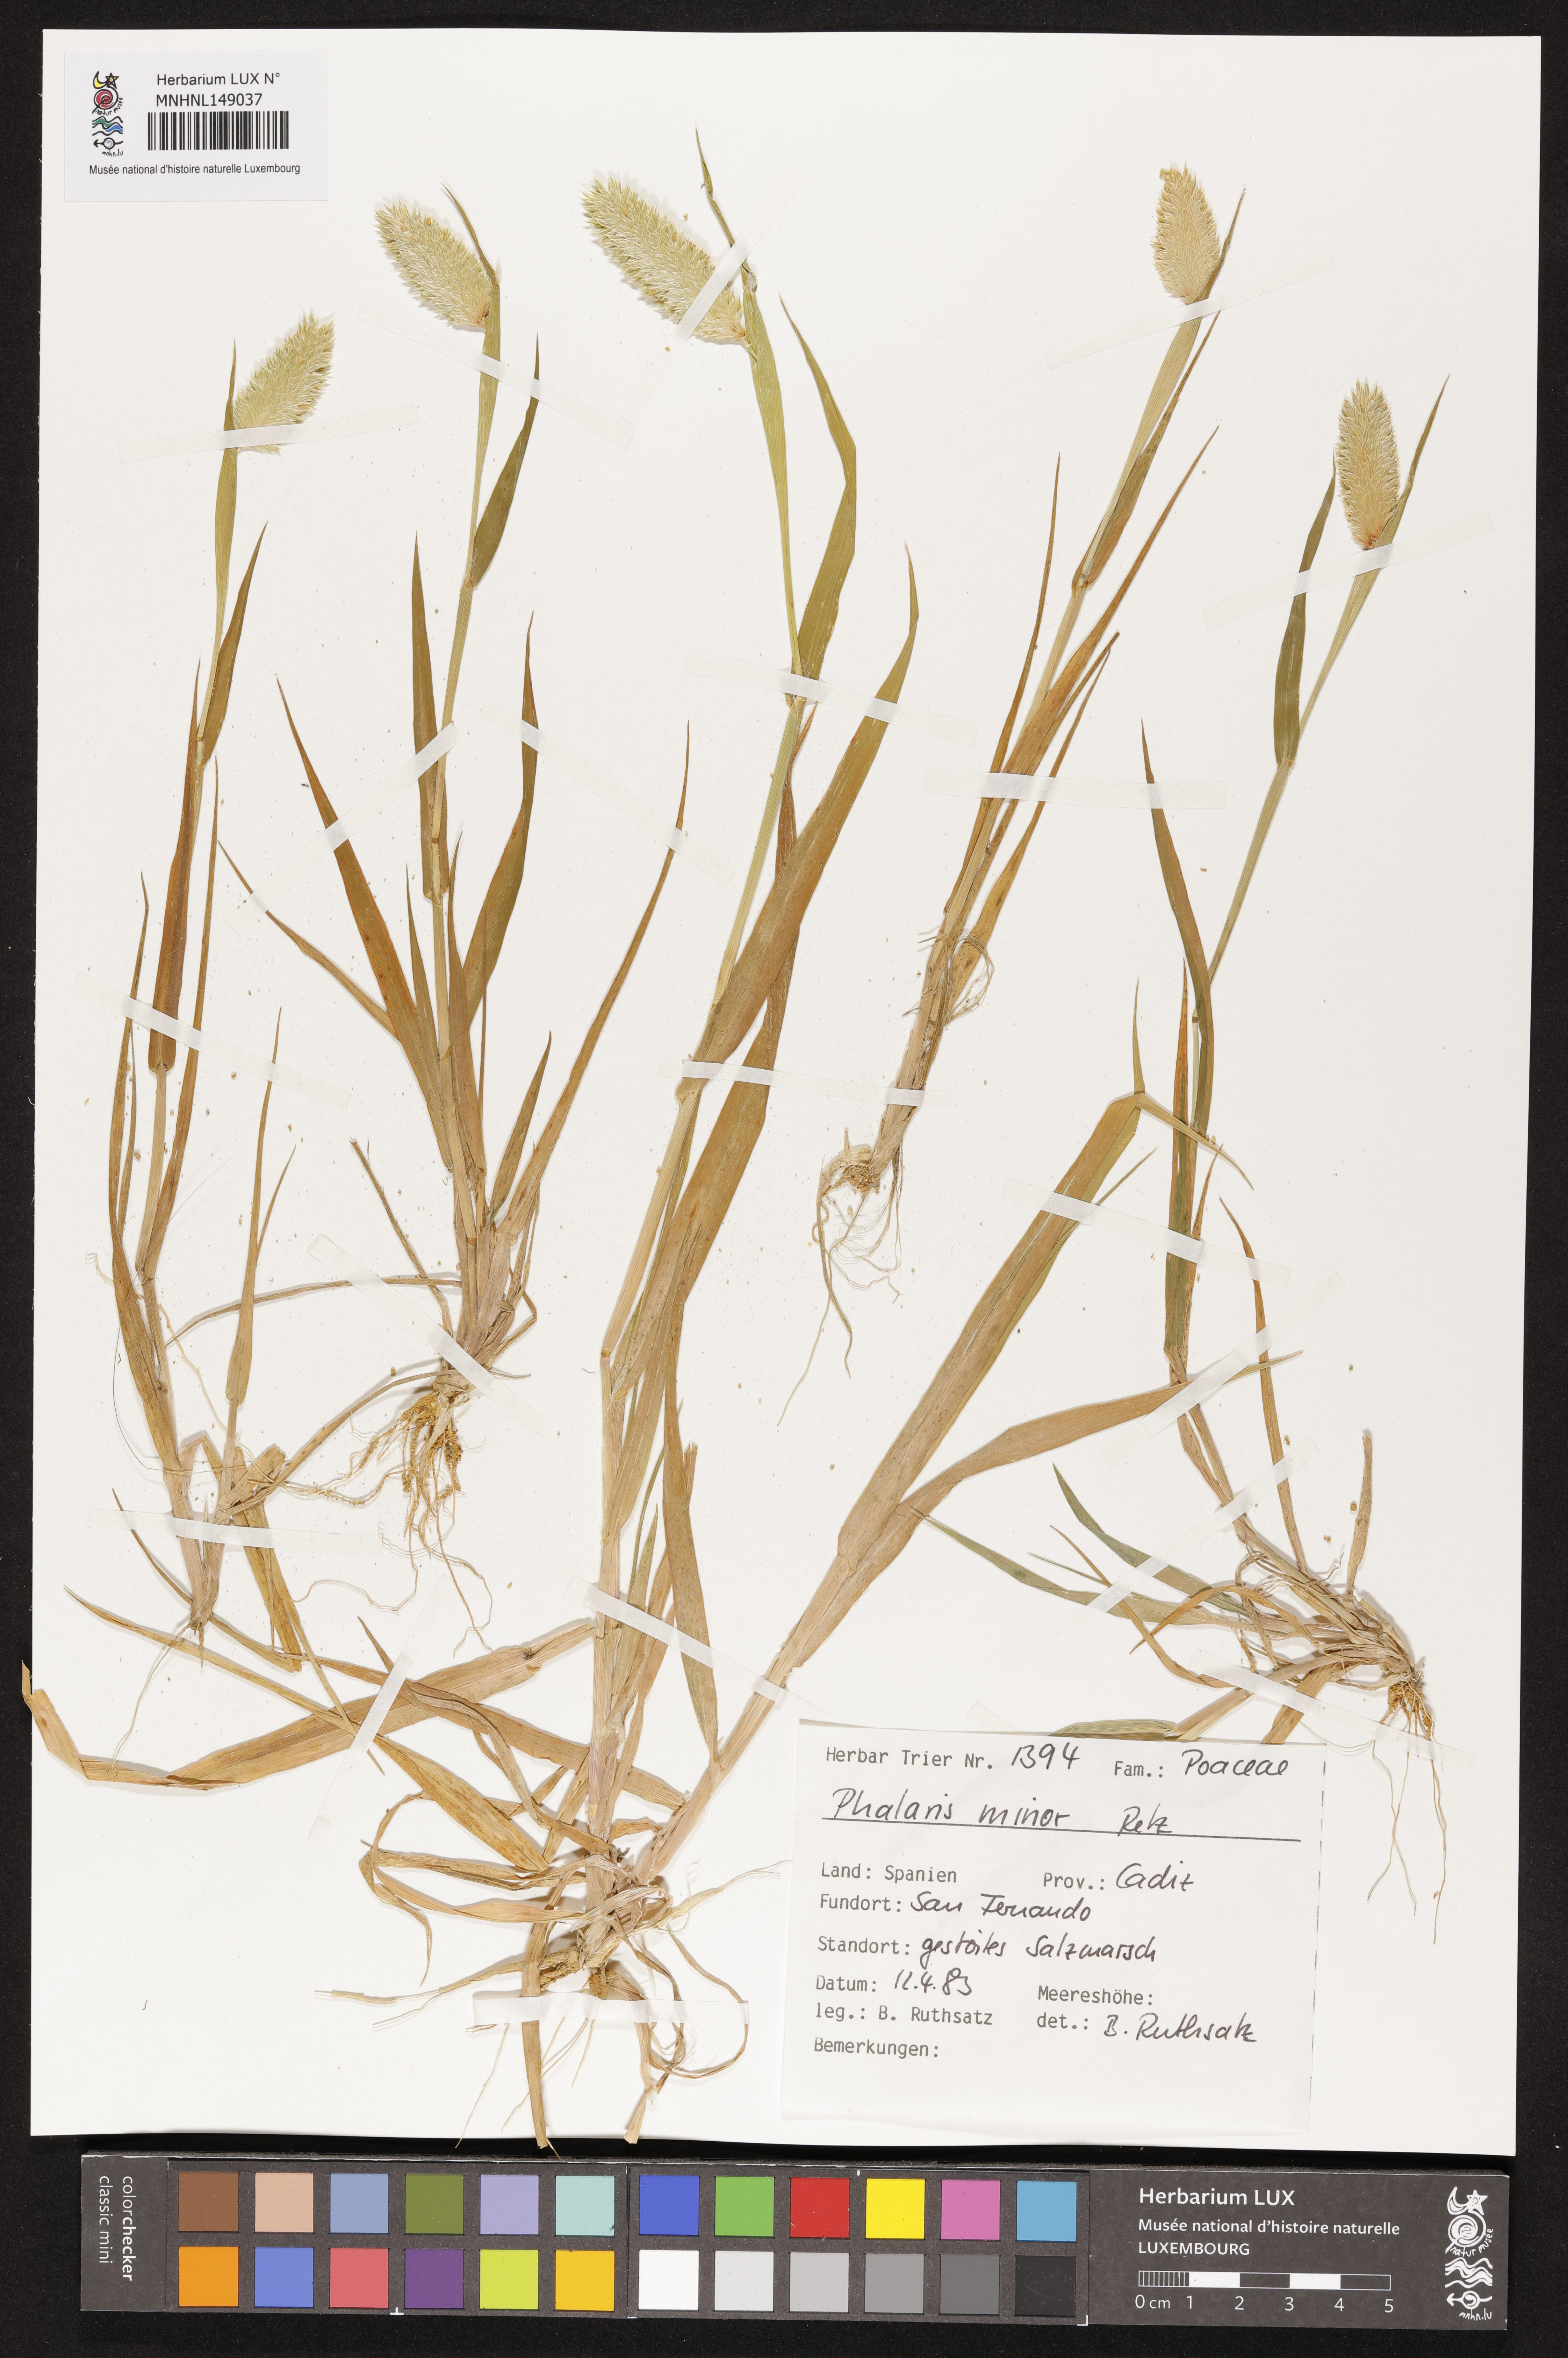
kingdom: Plantae
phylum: Tracheophyta
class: Liliopsida
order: Poales
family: Poaceae
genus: Phalaris
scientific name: Phalaris minor
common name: Littleseed canarygrass
